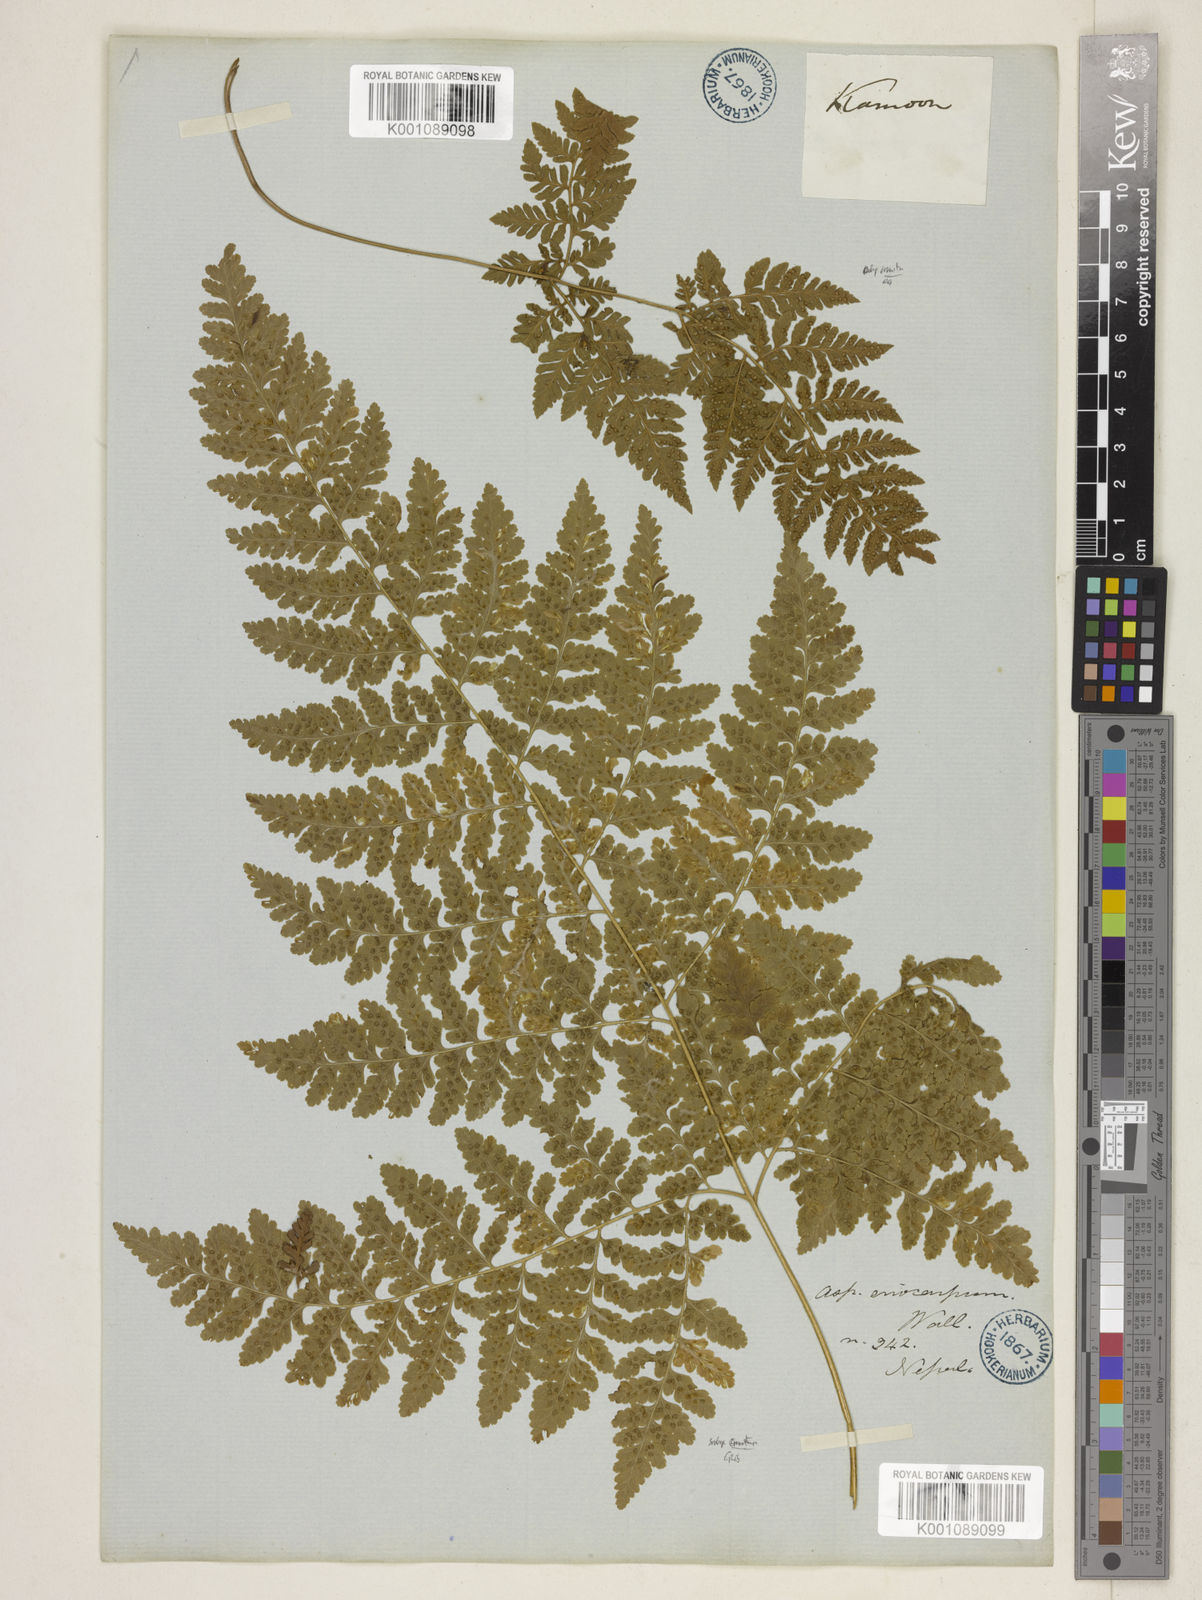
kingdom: Plantae
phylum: Tracheophyta
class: Polypodiopsida
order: Polypodiales
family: Hypodematiaceae
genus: Hypodematium
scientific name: Hypodematium chrysolepis
